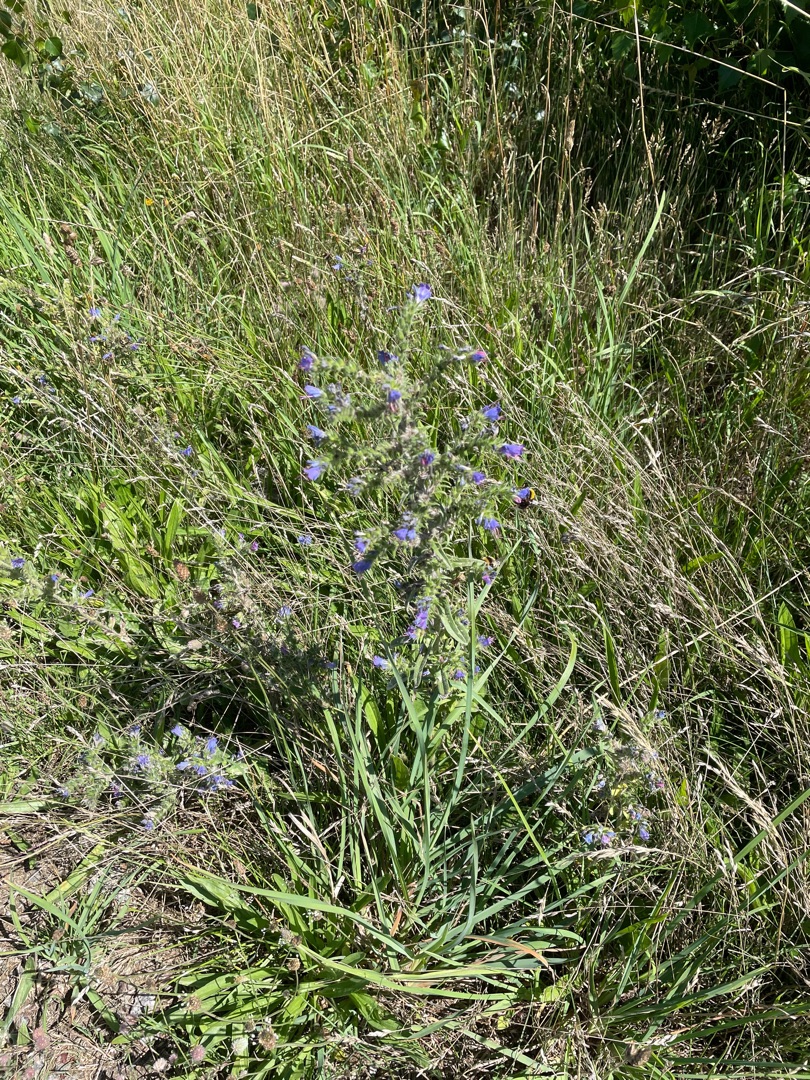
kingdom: Plantae
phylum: Tracheophyta
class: Magnoliopsida
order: Boraginales
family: Boraginaceae
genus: Echium
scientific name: Echium vulgare
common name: Slangehoved
